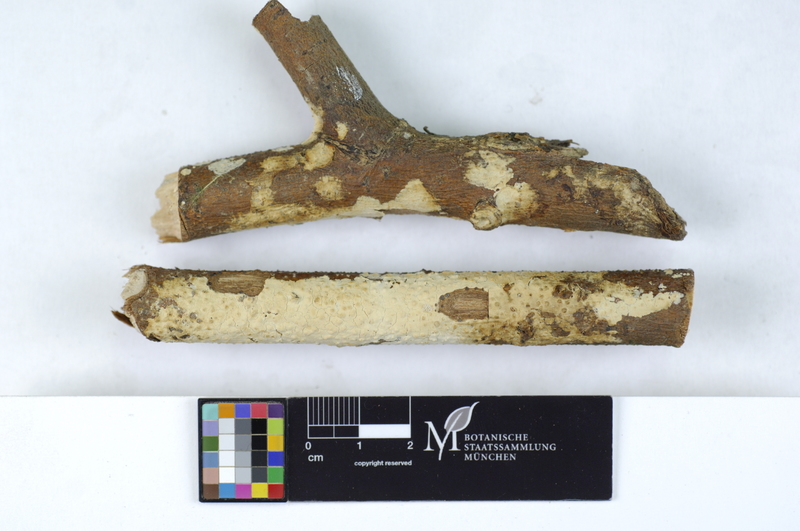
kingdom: Fungi
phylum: Basidiomycota
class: Agaricomycetes
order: Agaricales
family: Physalacriaceae
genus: Cylindrobasidium
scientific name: Cylindrobasidium evolvens
